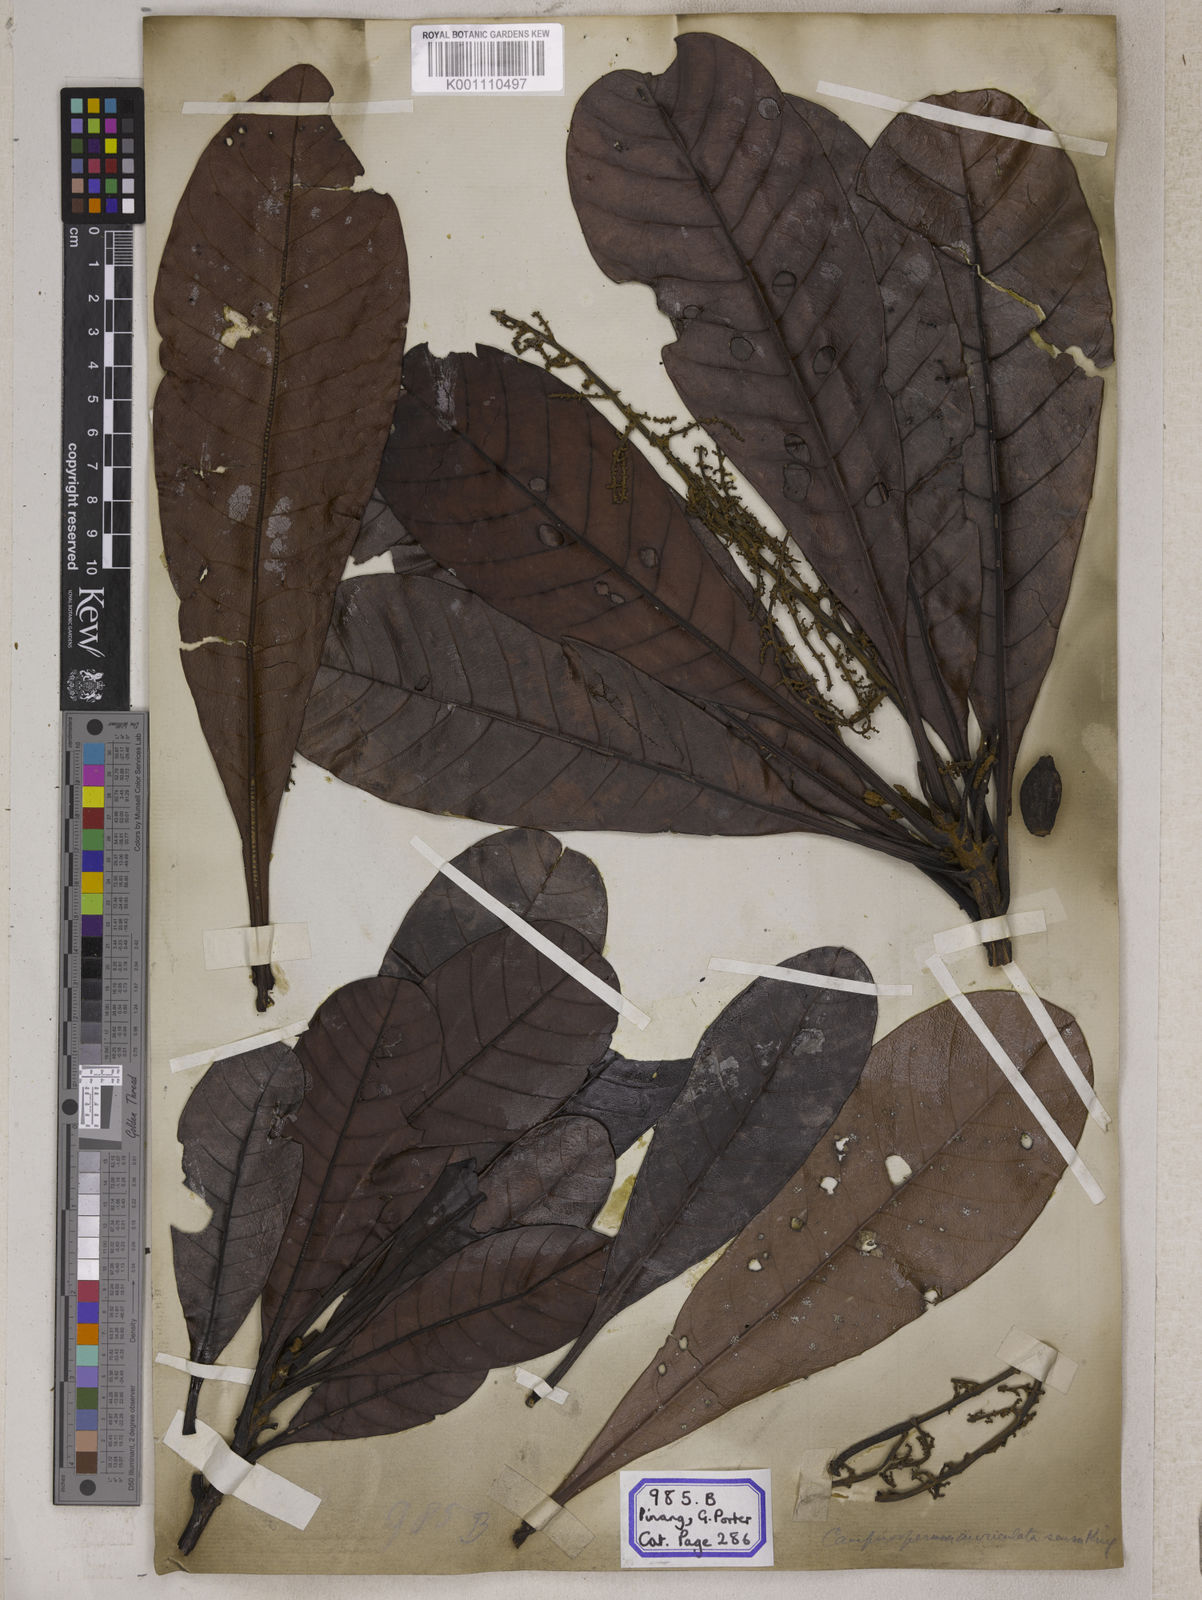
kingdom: Plantae
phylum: Tracheophyta
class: Magnoliopsida
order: Sapindales
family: Anacardiaceae
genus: Semecarpus
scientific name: Semecarpus
